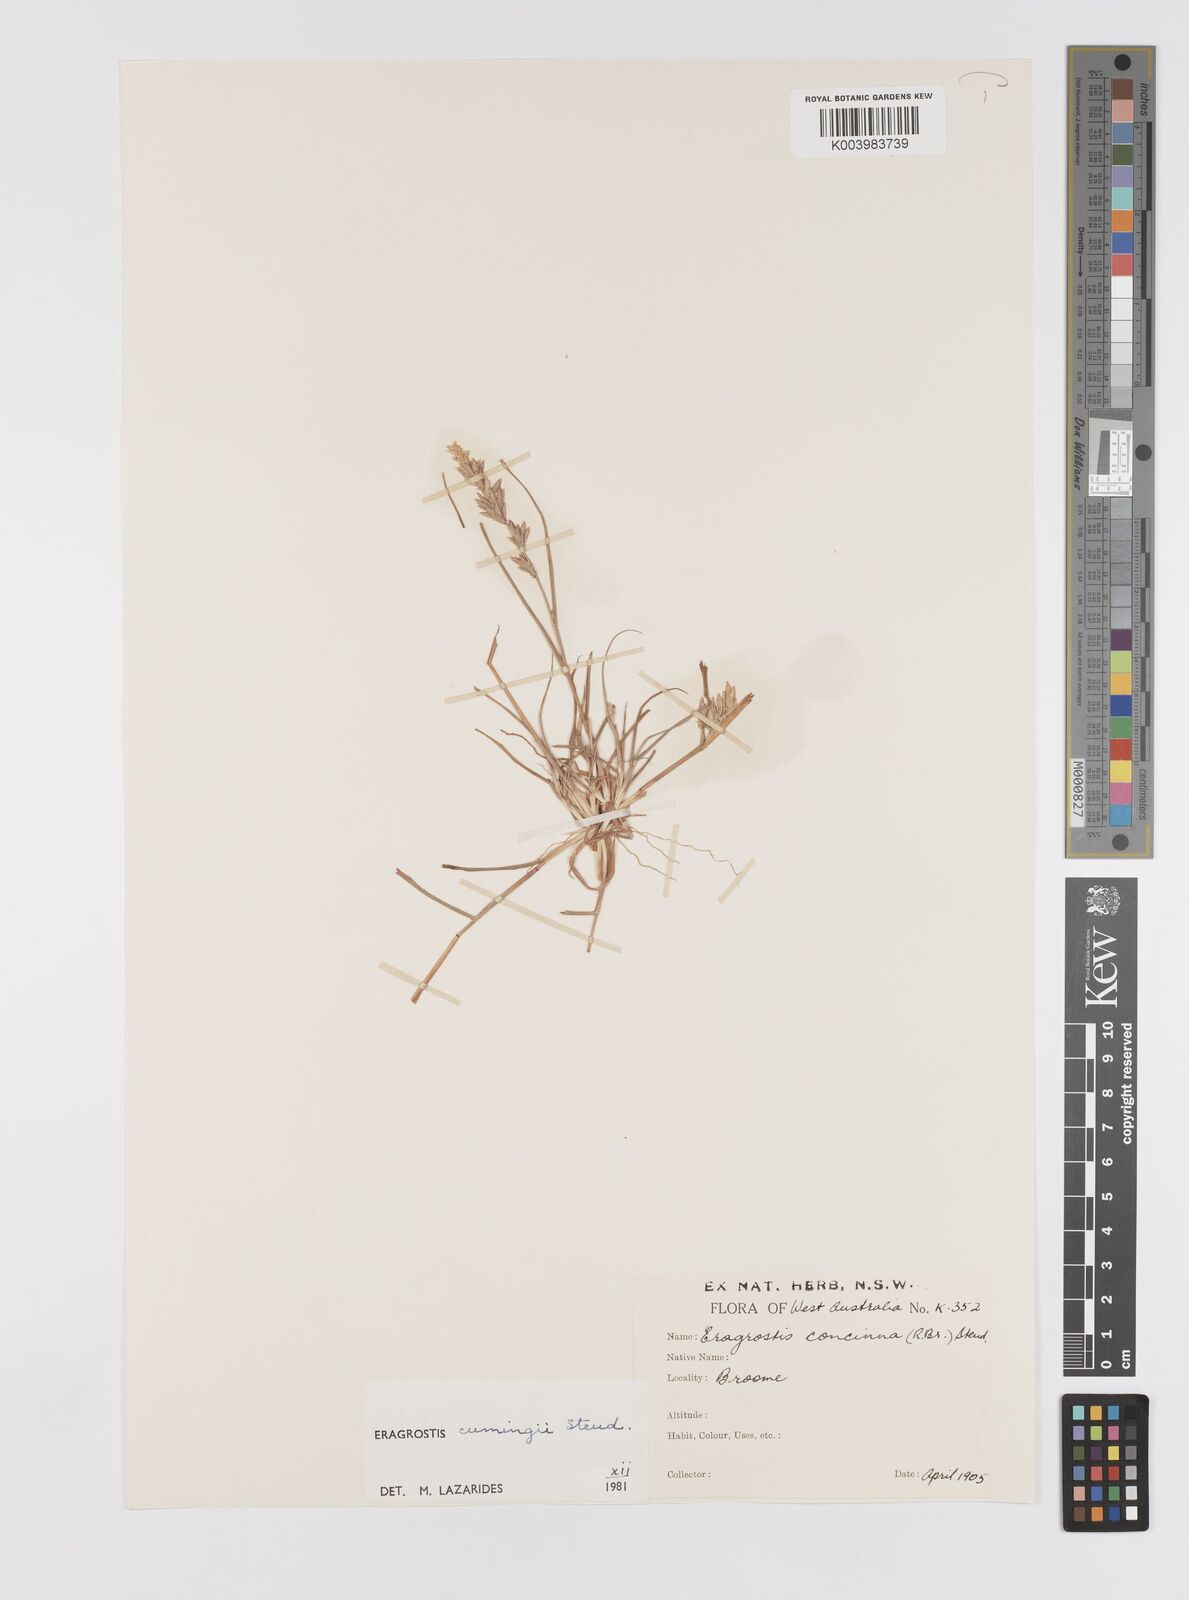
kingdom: Plantae
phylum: Tracheophyta
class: Liliopsida
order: Poales
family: Poaceae
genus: Eragrostis
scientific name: Eragrostis cumingii
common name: Cuming's lovegrass
